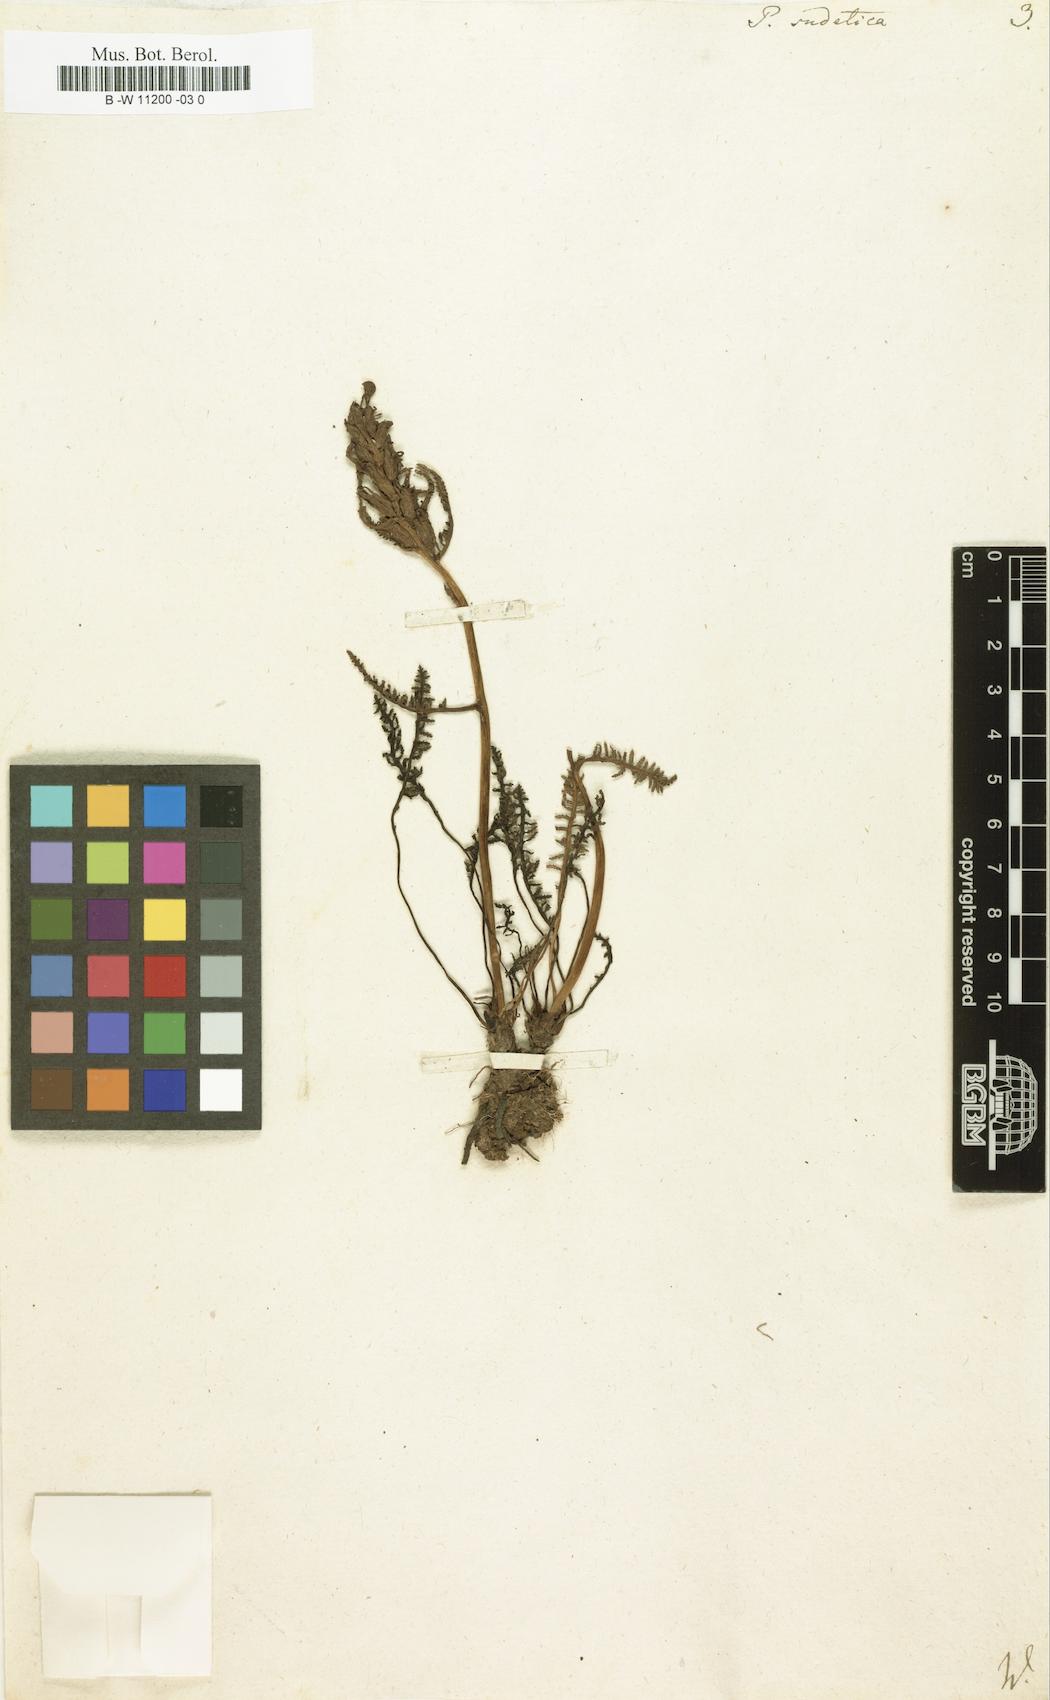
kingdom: Plantae
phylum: Tracheophyta
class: Magnoliopsida
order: Lamiales
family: Orobanchaceae
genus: Pedicularis
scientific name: Pedicularis sudetica
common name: Sudeten lousewort
